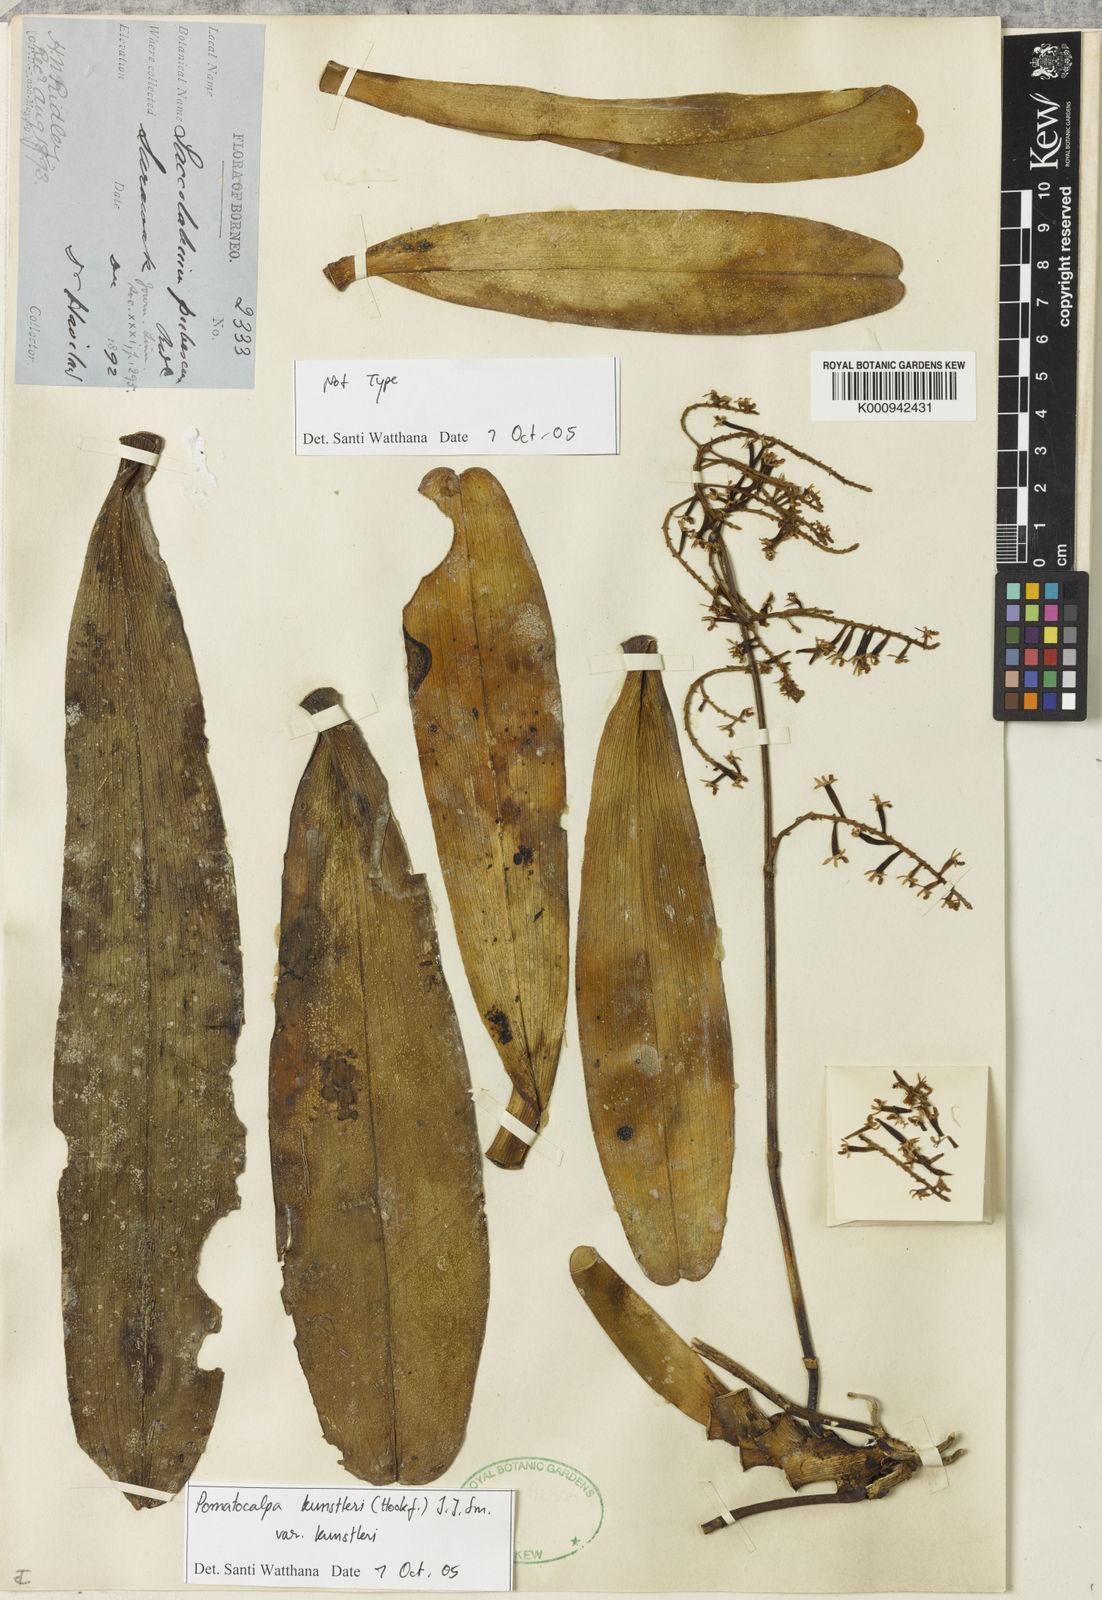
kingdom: Plantae
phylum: Tracheophyta
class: Liliopsida
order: Asparagales
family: Orchidaceae
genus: Pomatocalpa
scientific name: Pomatocalpa kunstleri
